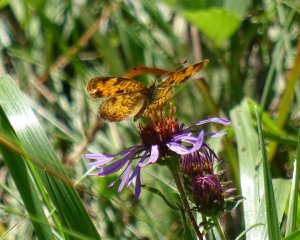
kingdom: Animalia
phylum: Arthropoda
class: Insecta
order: Lepidoptera
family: Nymphalidae
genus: Phyciodes
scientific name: Phyciodes tharos
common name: Pearl Crescent
